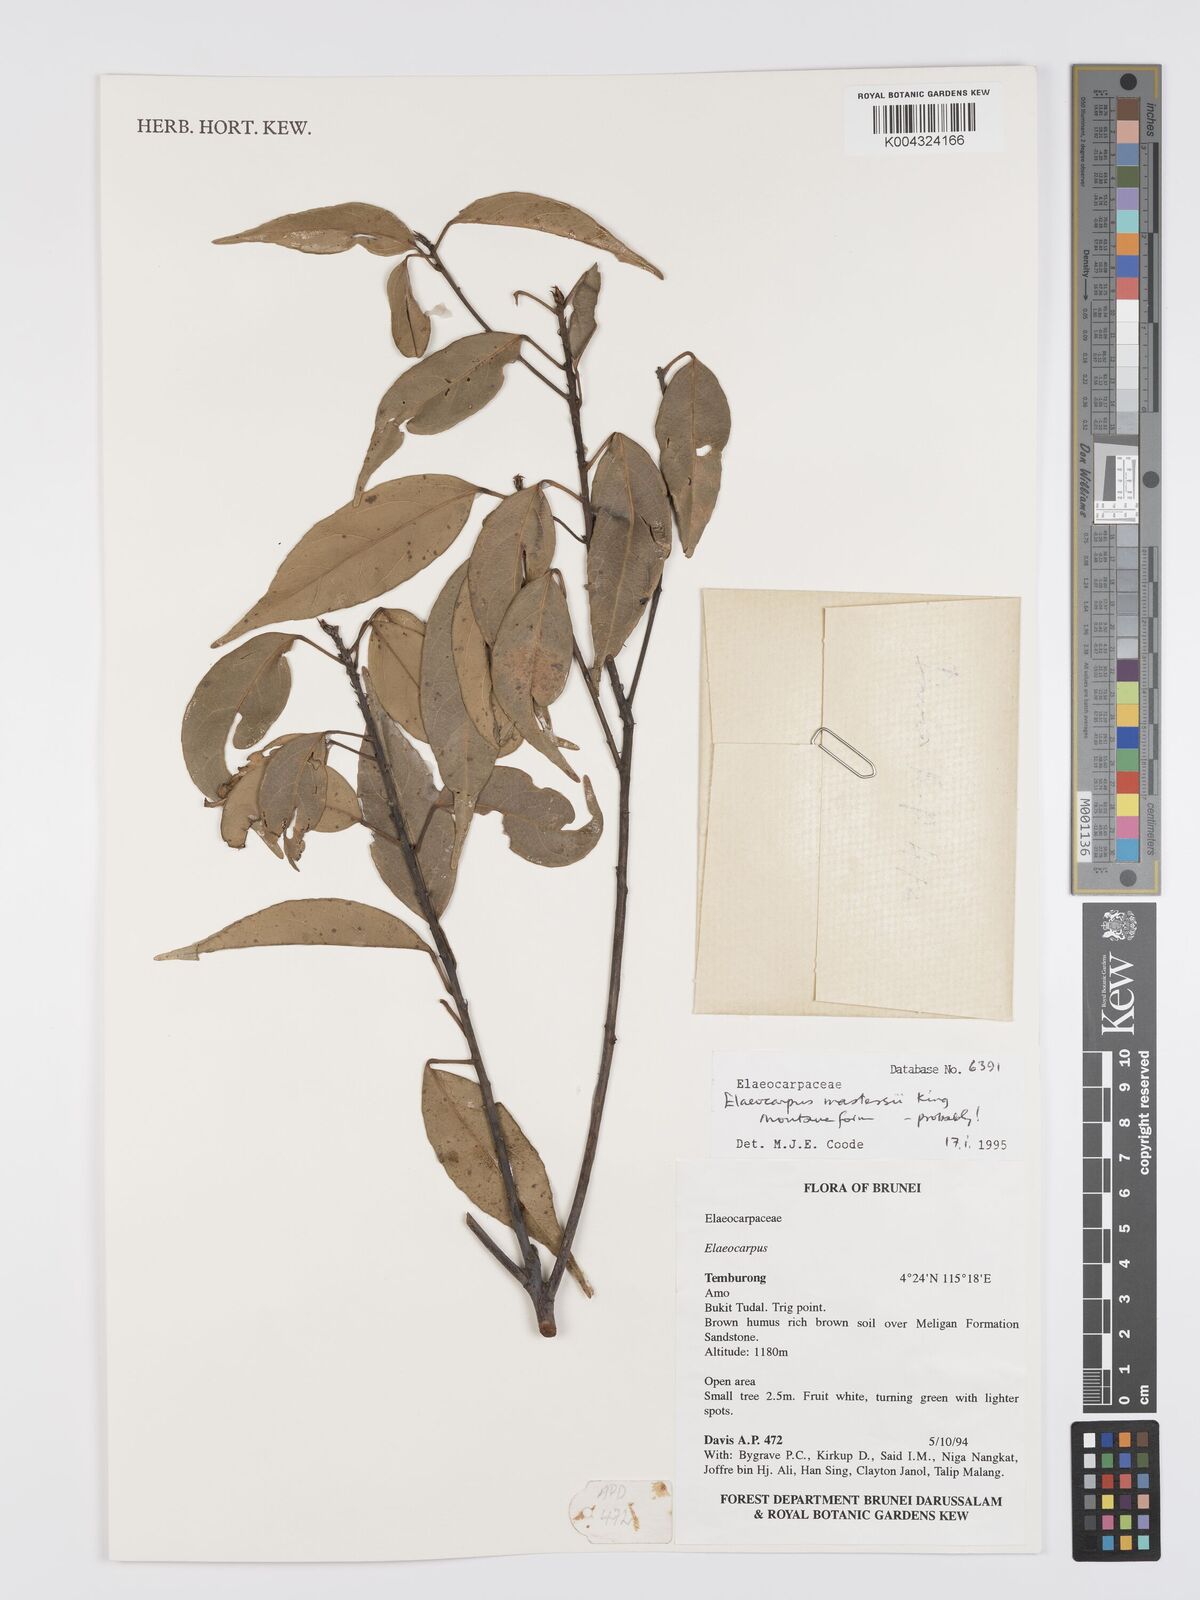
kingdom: Plantae
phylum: Tracheophyta
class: Magnoliopsida
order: Oxalidales
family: Elaeocarpaceae
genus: Elaeocarpus
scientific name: Elaeocarpus mastersii
